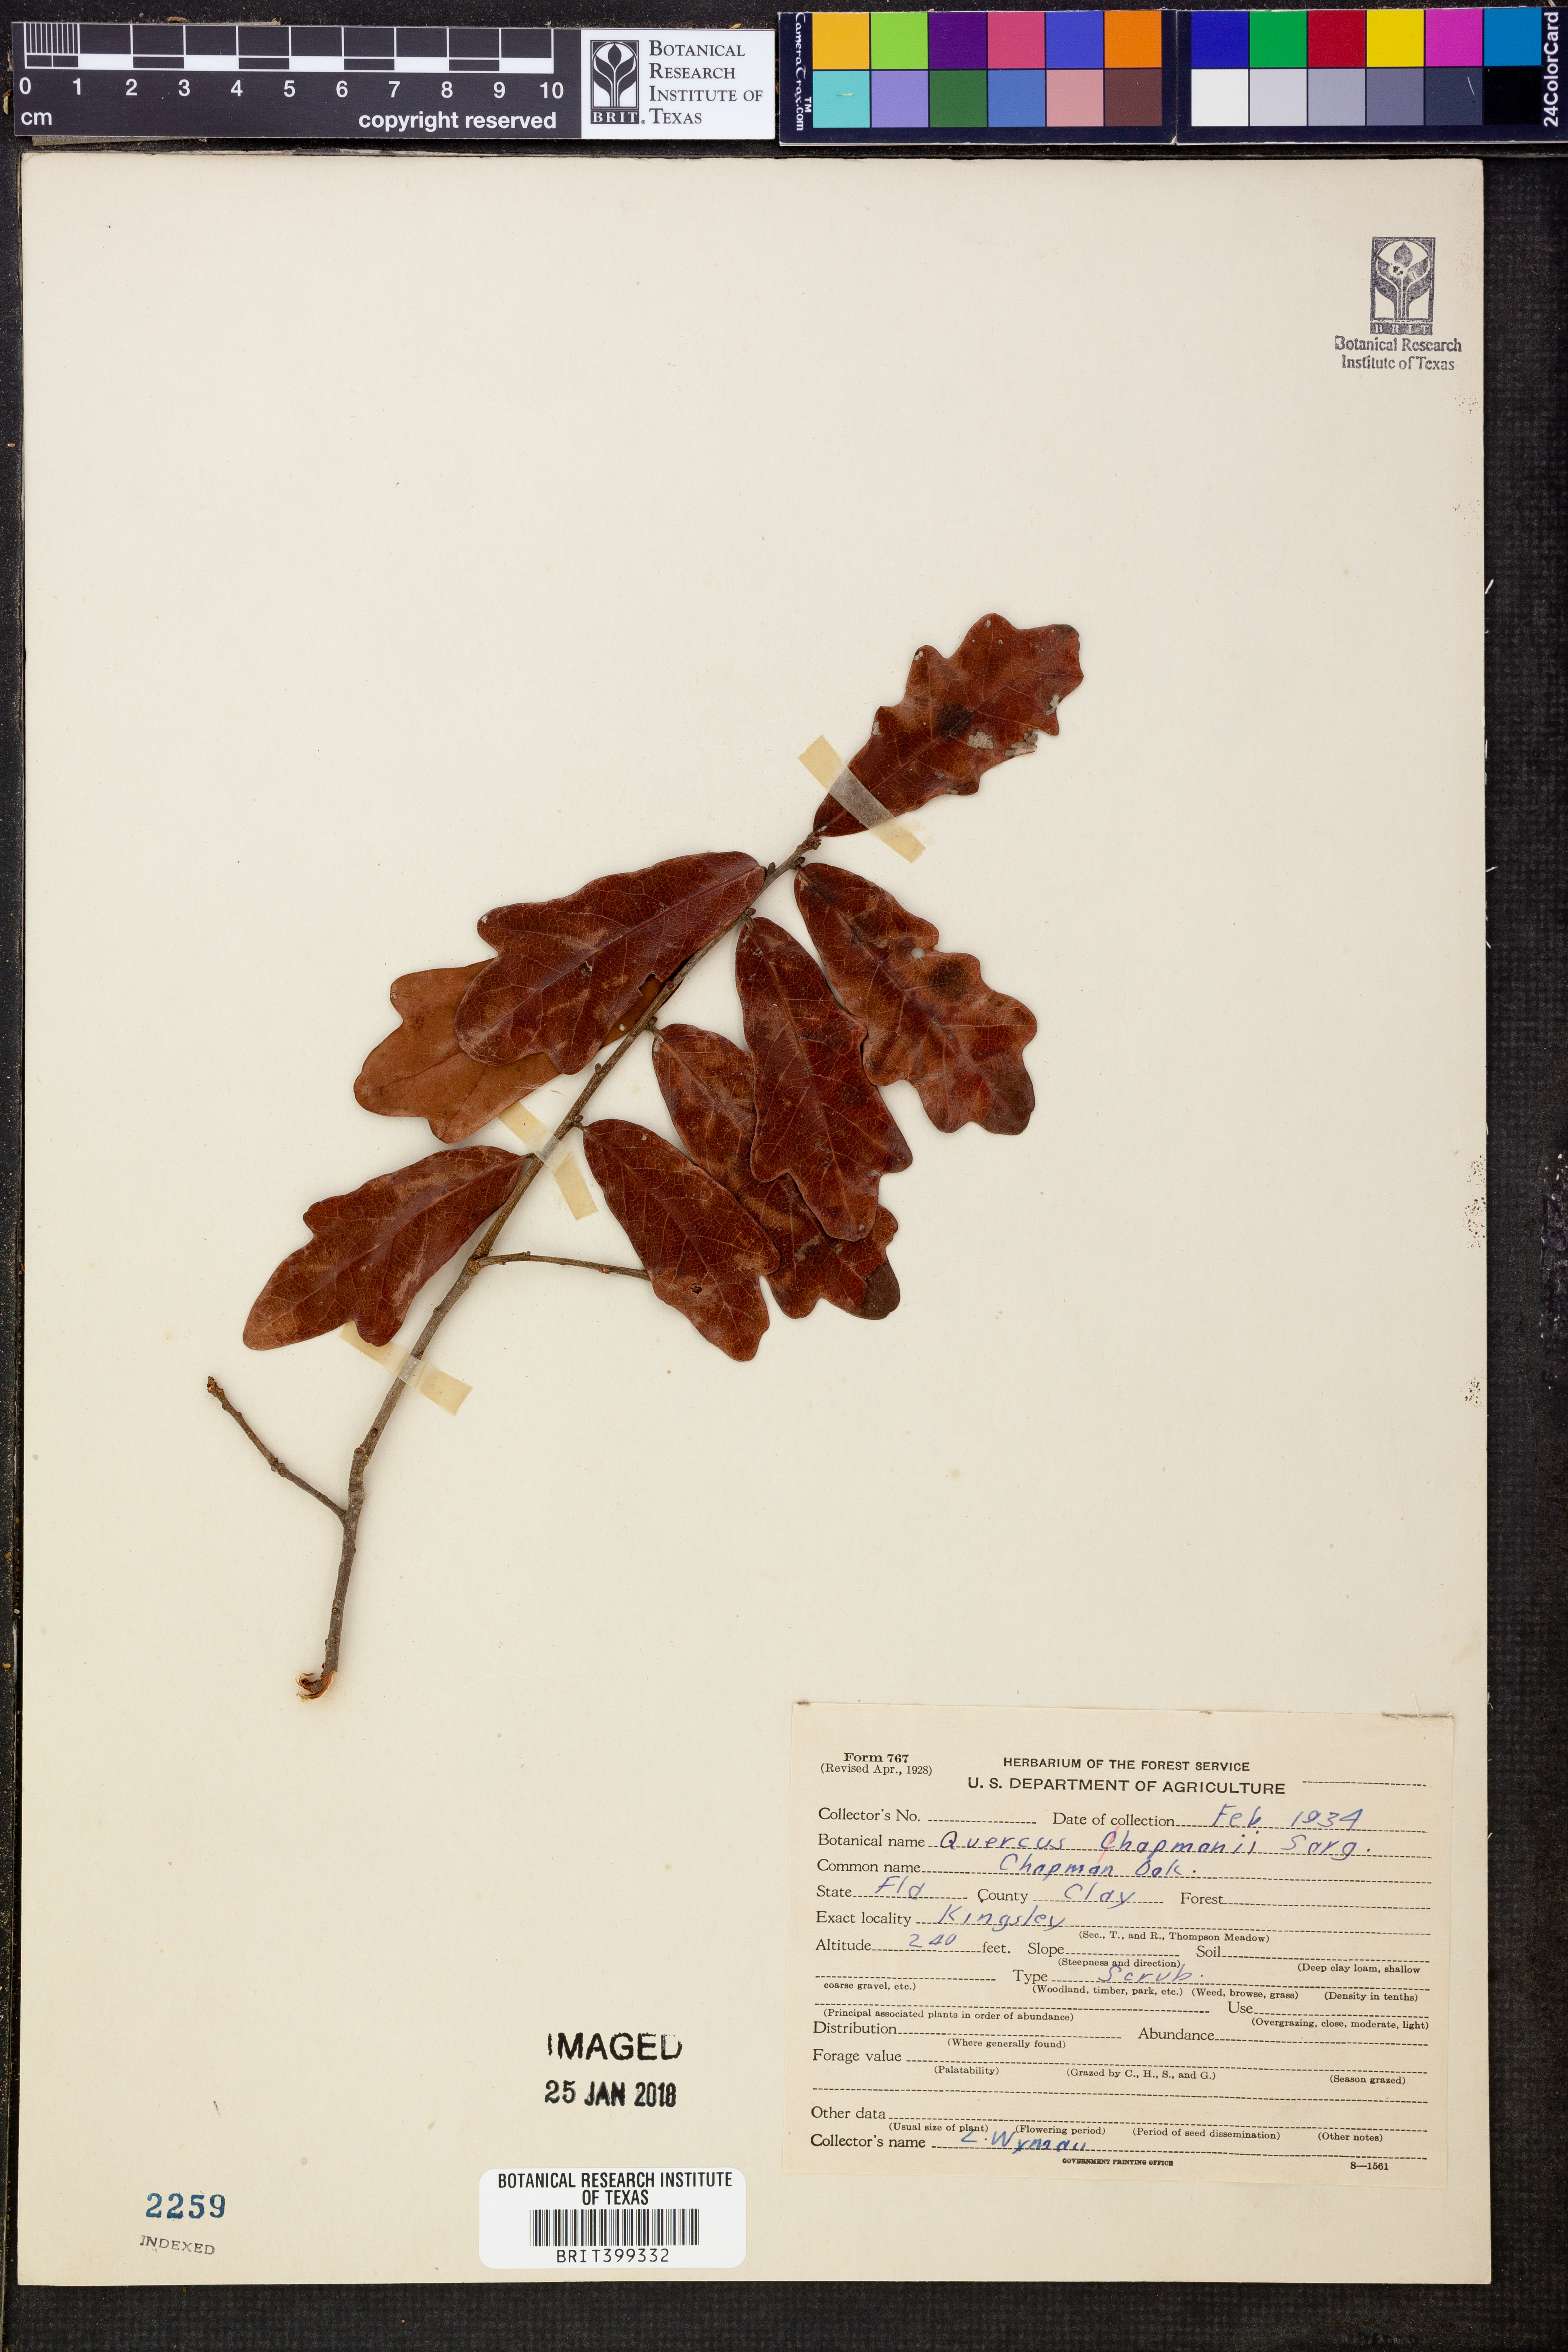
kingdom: Plantae
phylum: Tracheophyta
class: Magnoliopsida
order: Fagales
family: Fagaceae
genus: Quercus
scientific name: Quercus chapmanii
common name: Chapman oak
